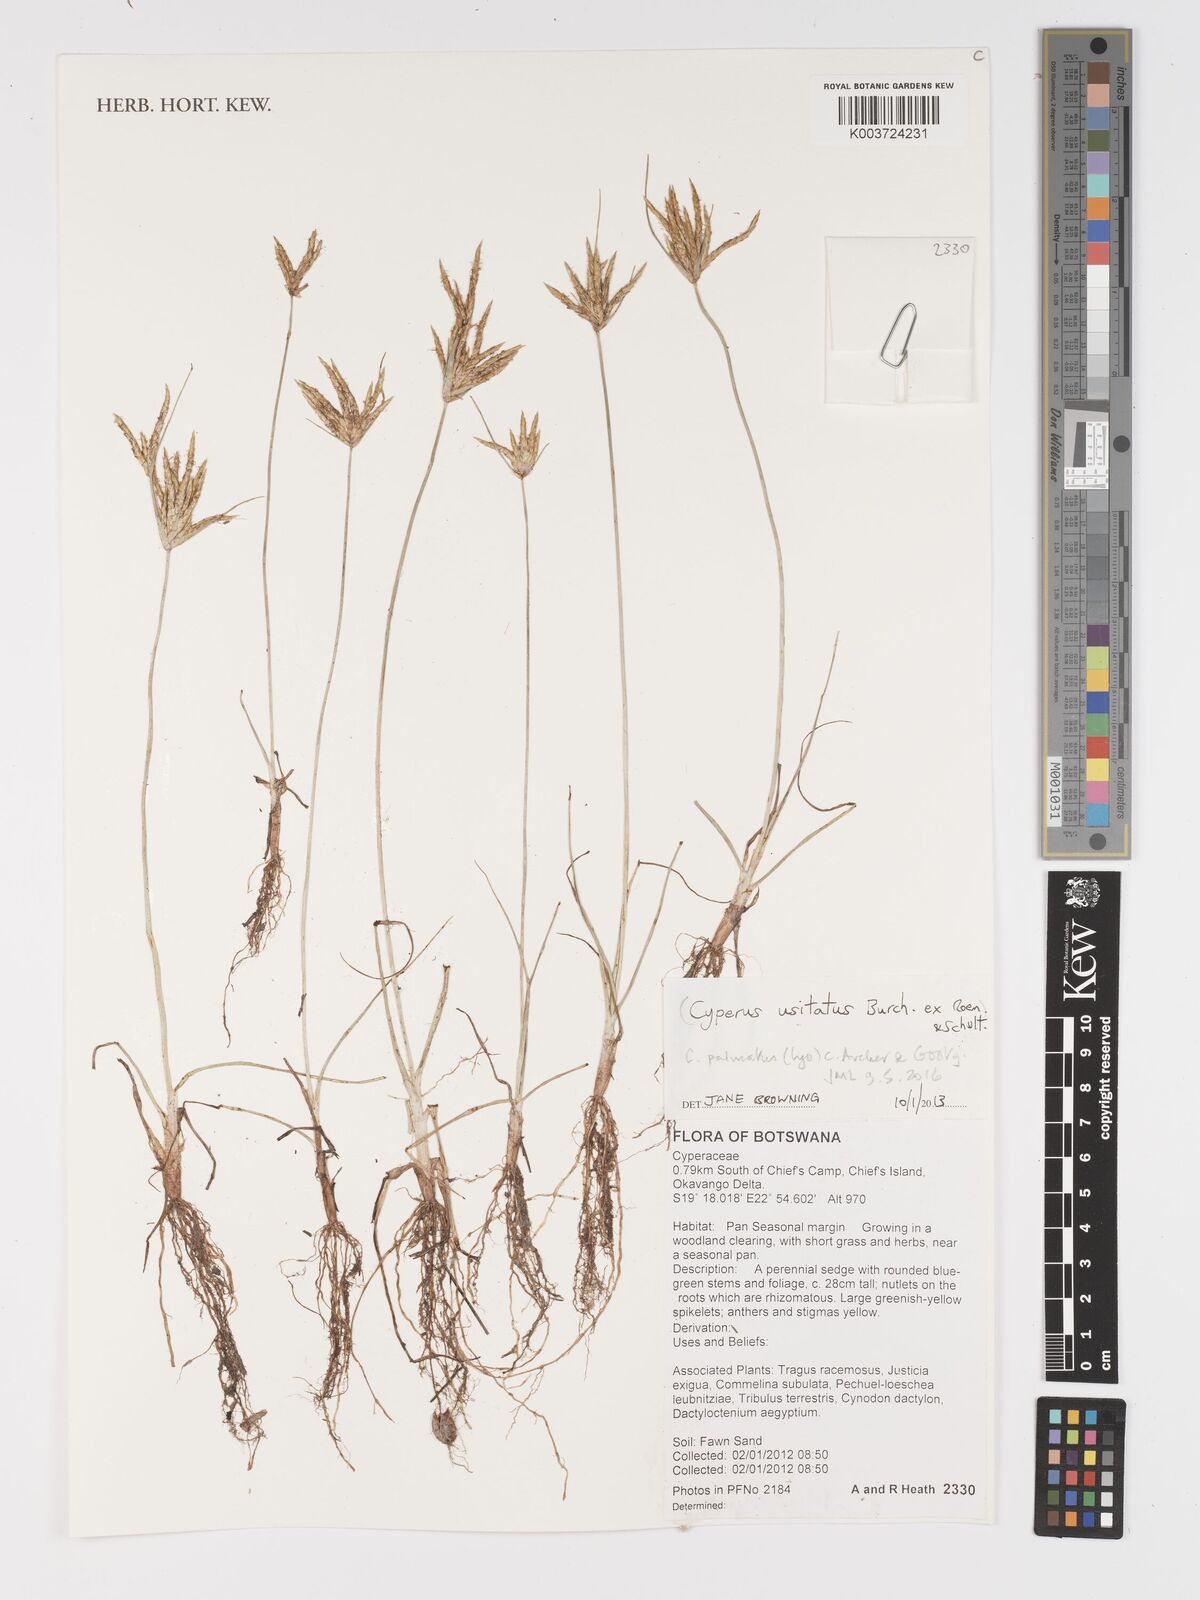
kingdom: Plantae
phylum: Tracheophyta
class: Liliopsida
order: Poales
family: Cyperaceae
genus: Cyperus
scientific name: Cyperus palmatus
